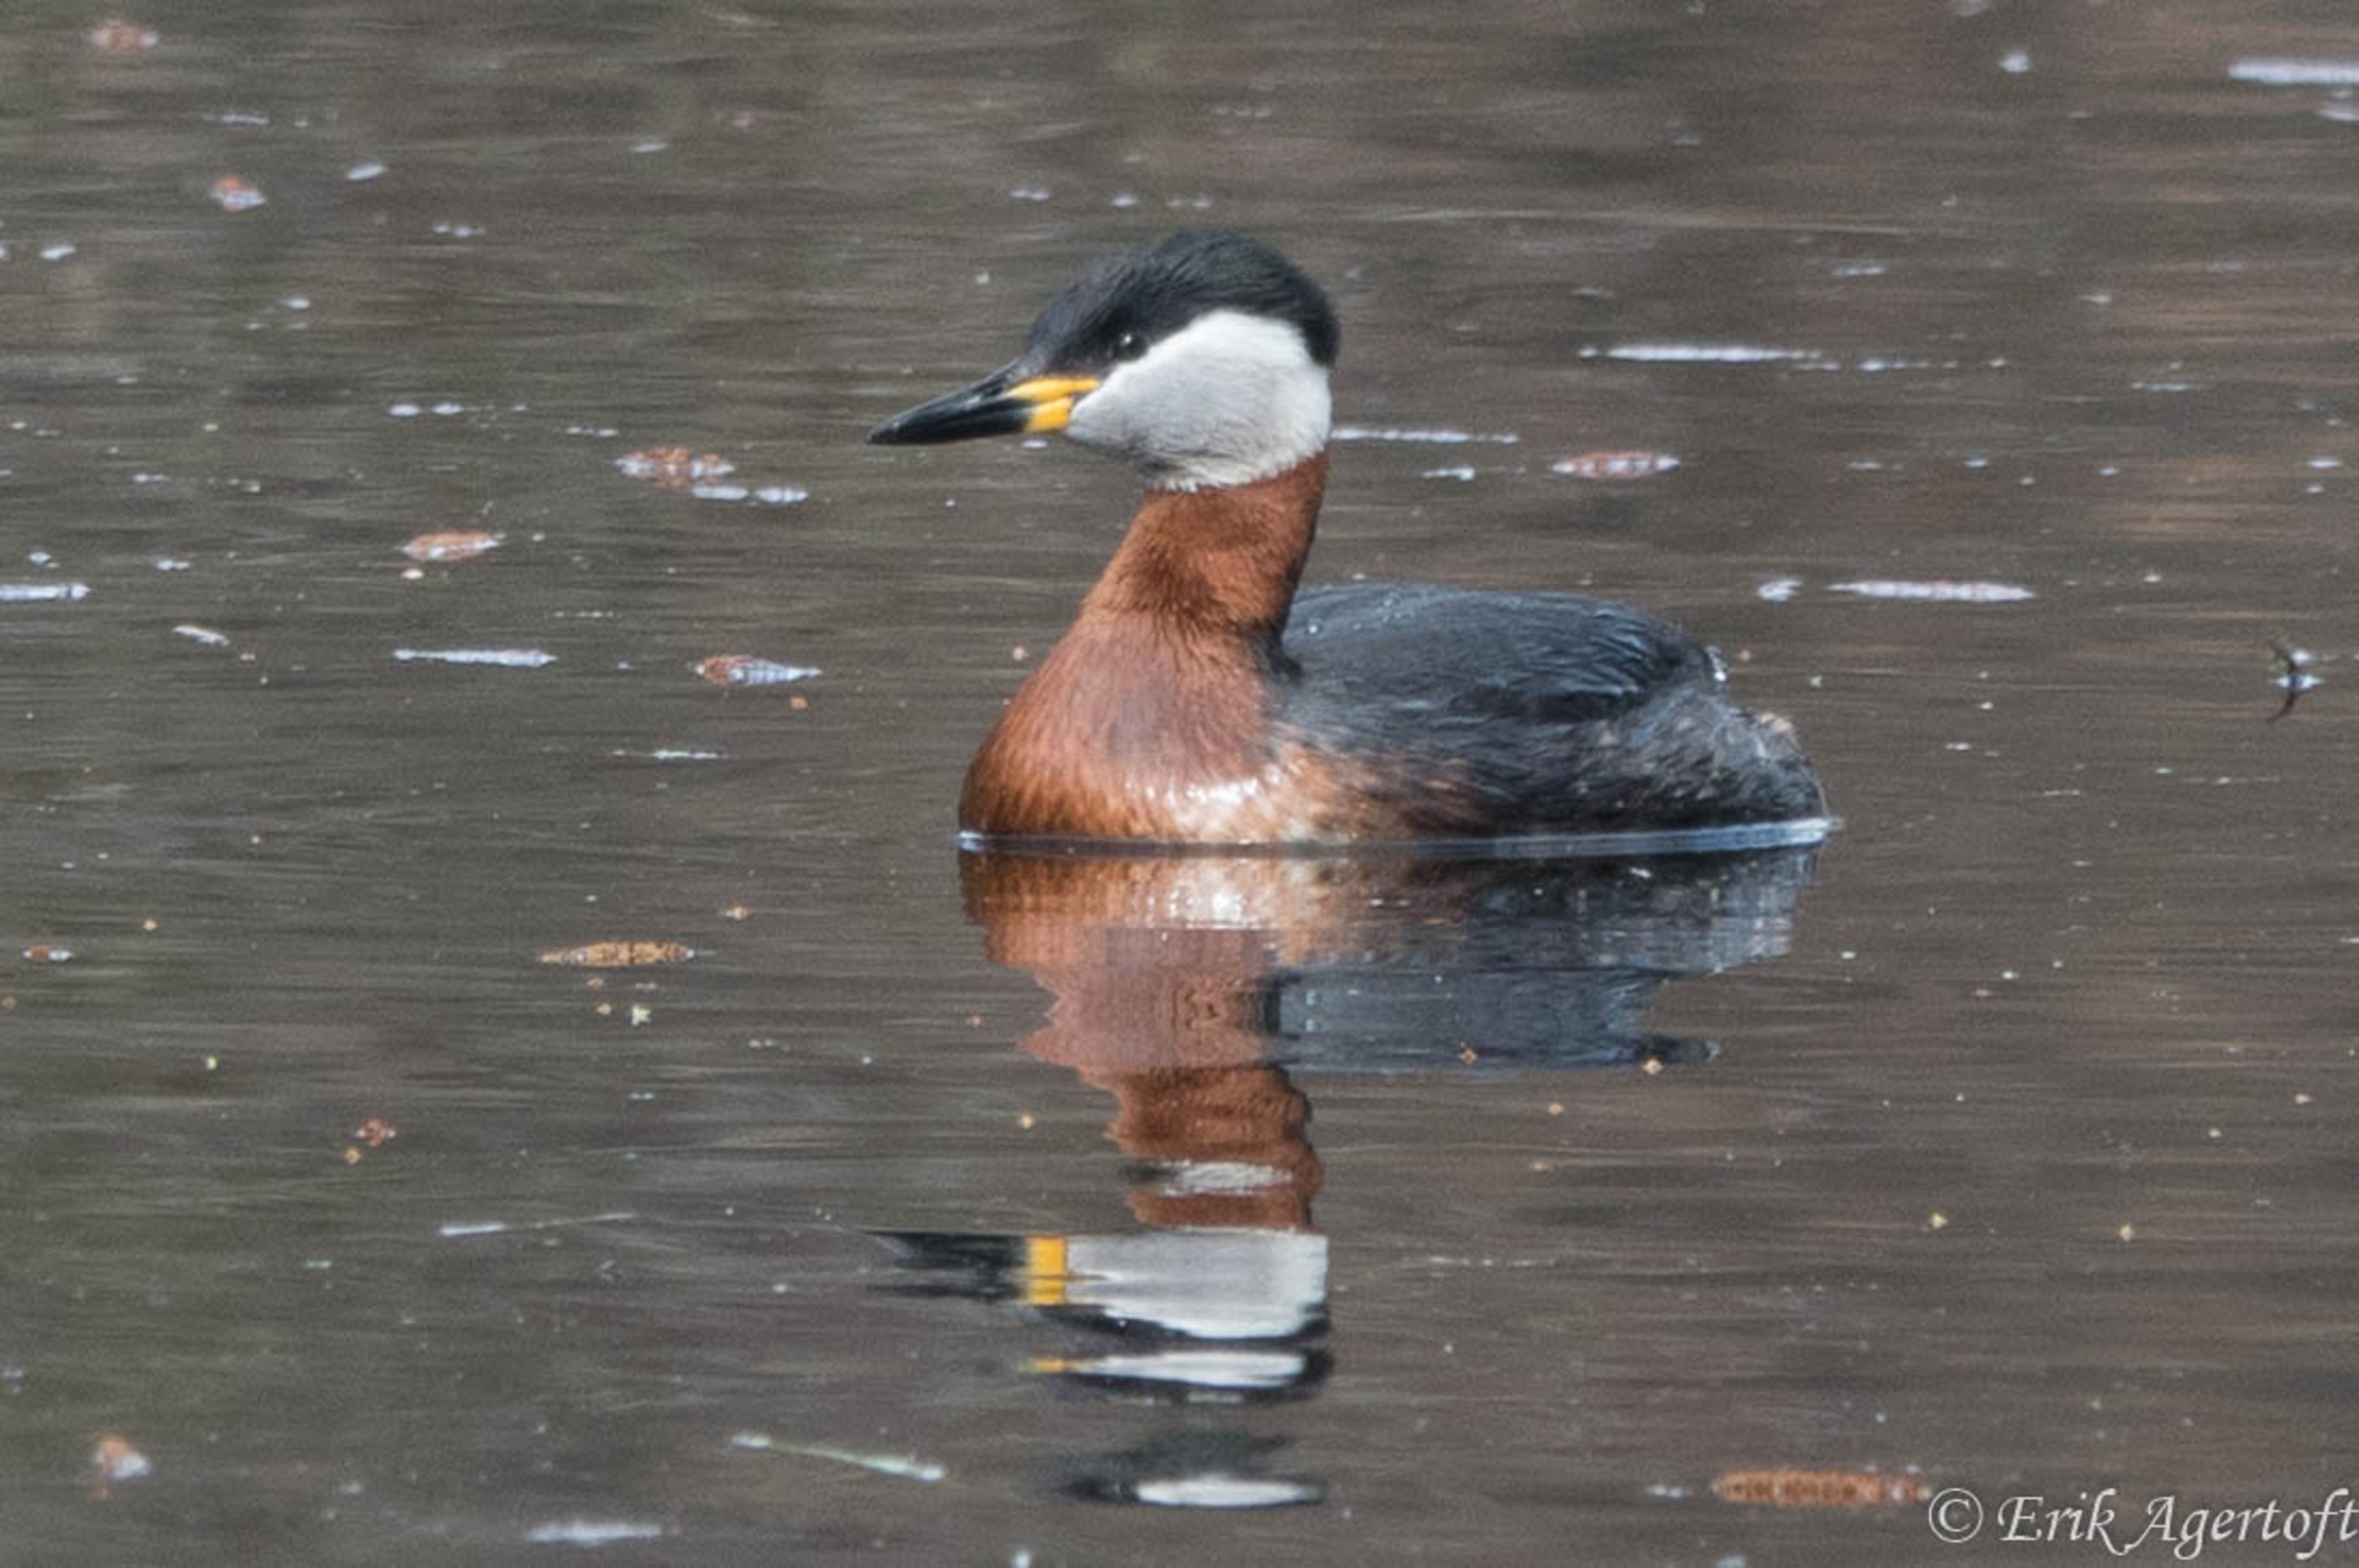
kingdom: Animalia
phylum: Chordata
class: Aves
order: Podicipediformes
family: Podicipedidae
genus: Podiceps
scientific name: Podiceps grisegena
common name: Gråstrubet lappedykker
